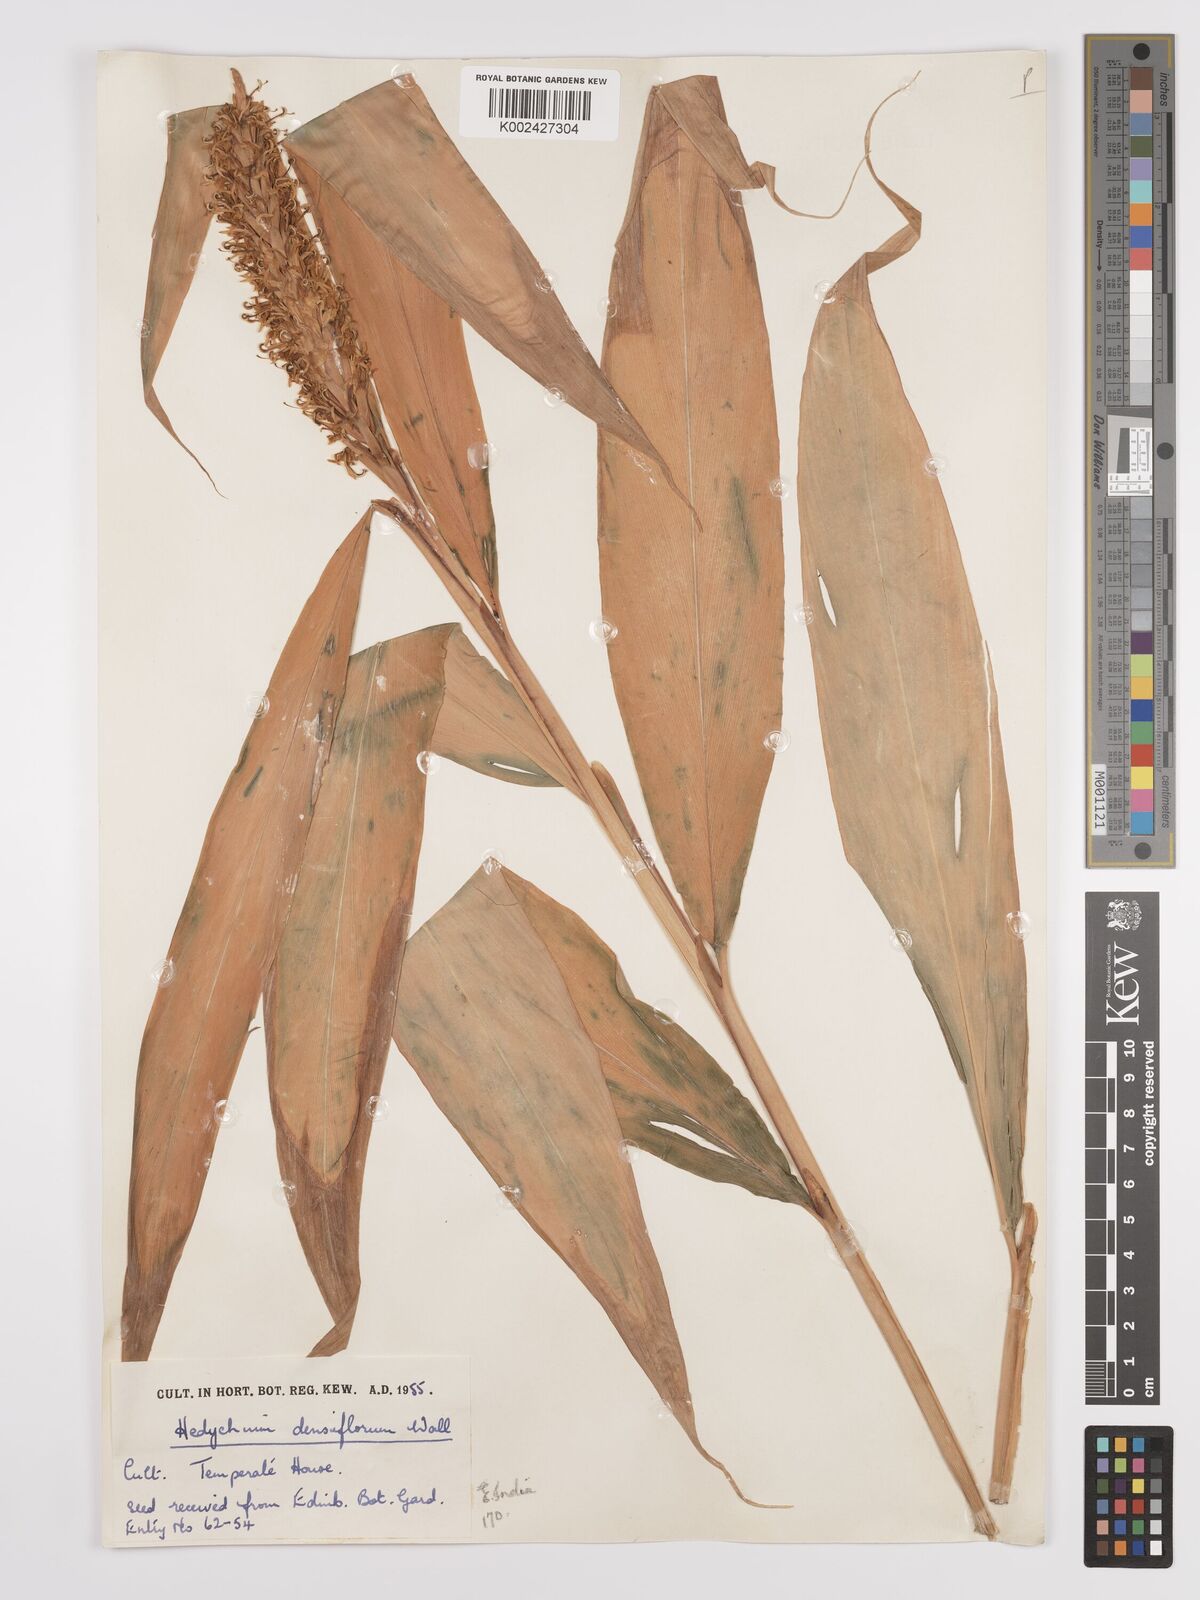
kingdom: Plantae
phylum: Tracheophyta
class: Liliopsida
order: Zingiberales
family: Zingiberaceae
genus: Hedychium
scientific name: Hedychium densiflorum
